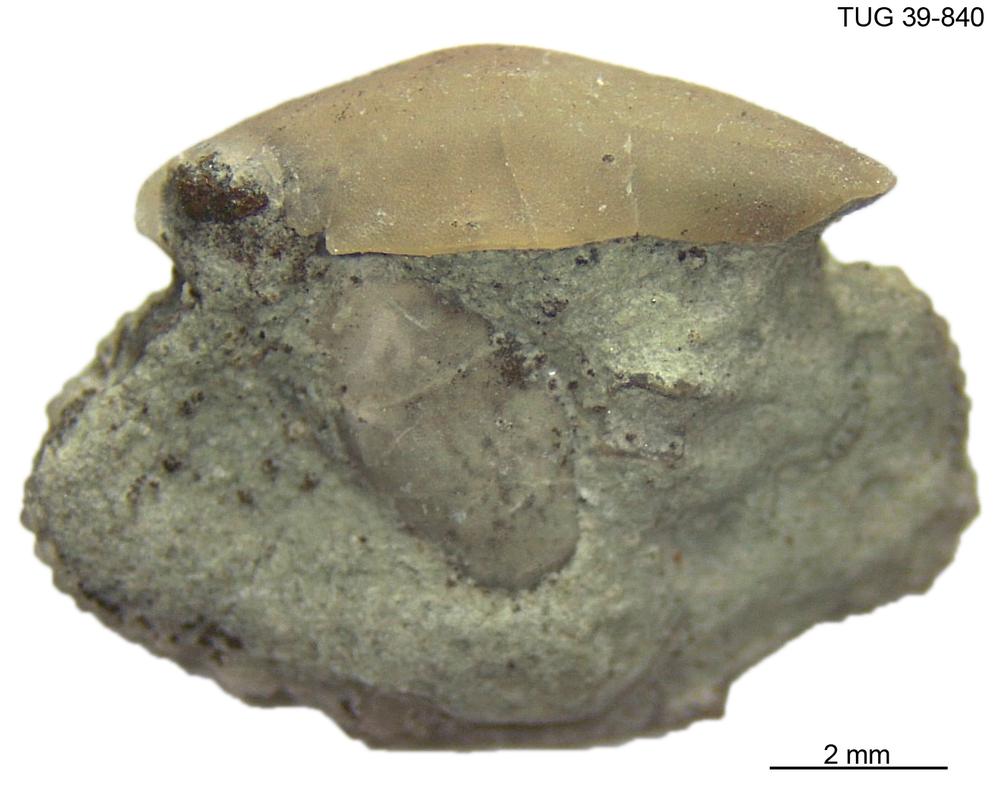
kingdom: Animalia
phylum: Arthropoda
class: Trilobita
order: Phacopida
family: Phacopidae
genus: Acernaspis
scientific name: Acernaspis
